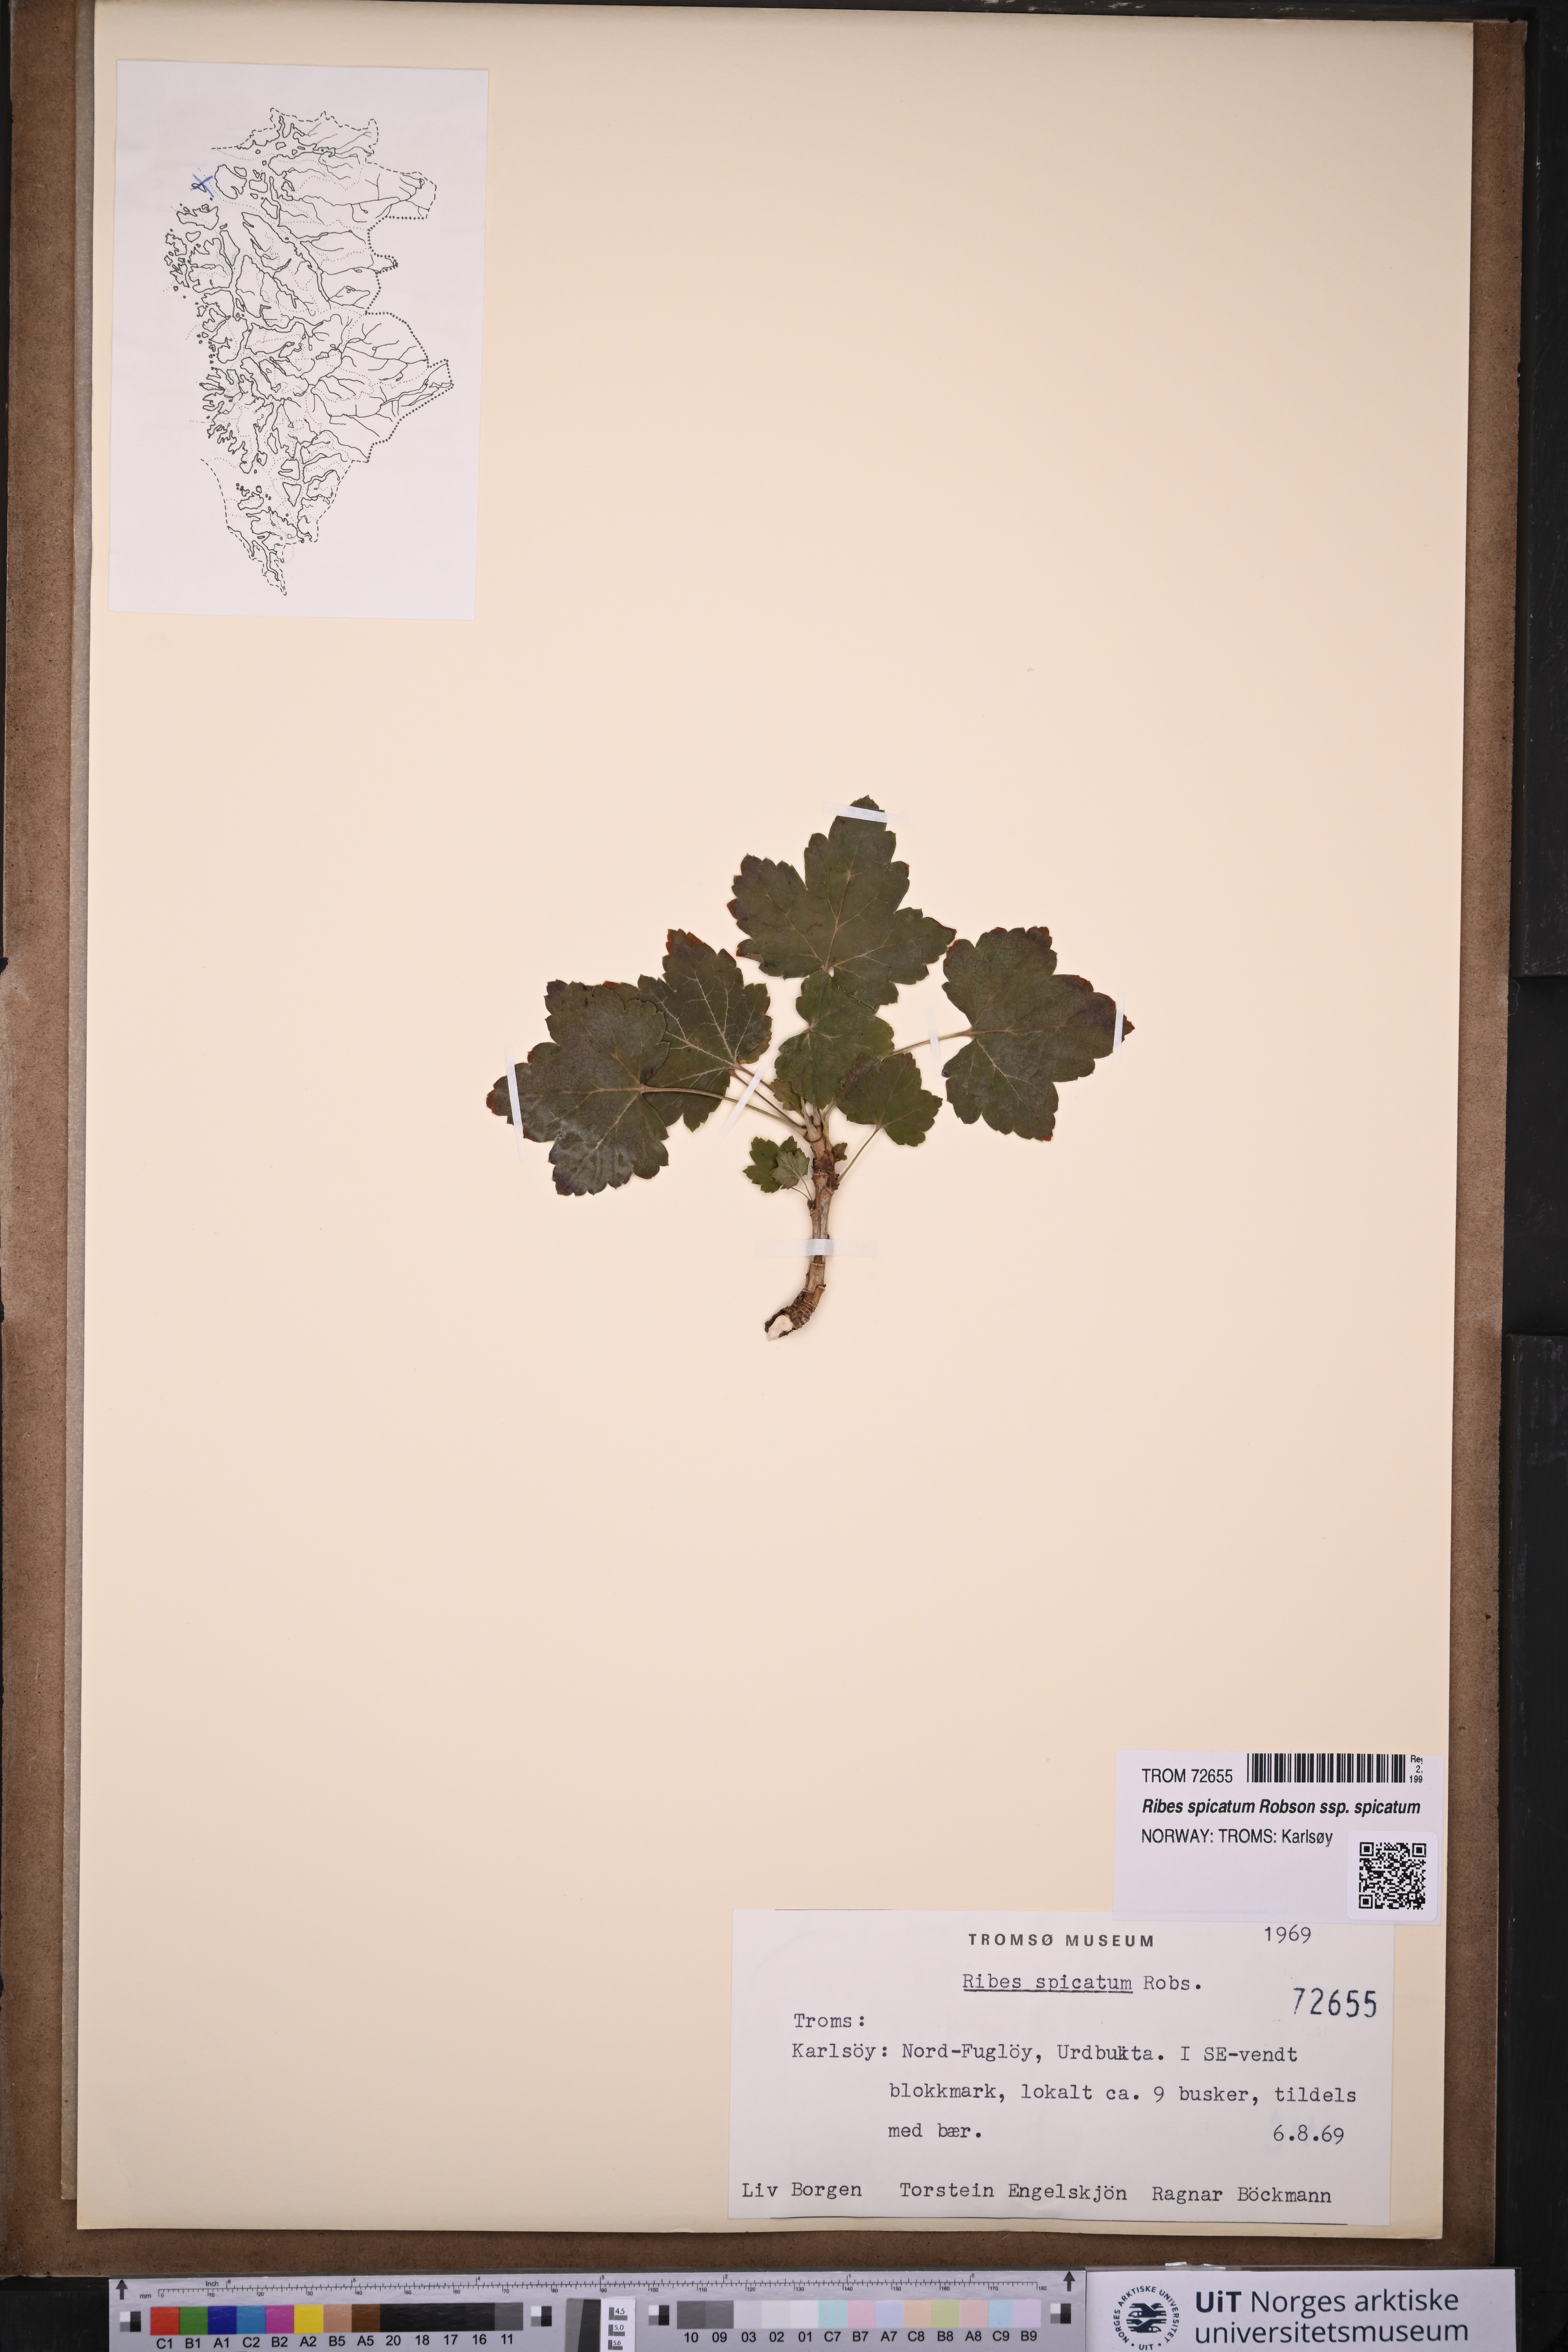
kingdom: Plantae
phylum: Tracheophyta
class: Magnoliopsida
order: Saxifragales
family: Grossulariaceae
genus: Ribes
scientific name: Ribes spicatum
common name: Downy currant
